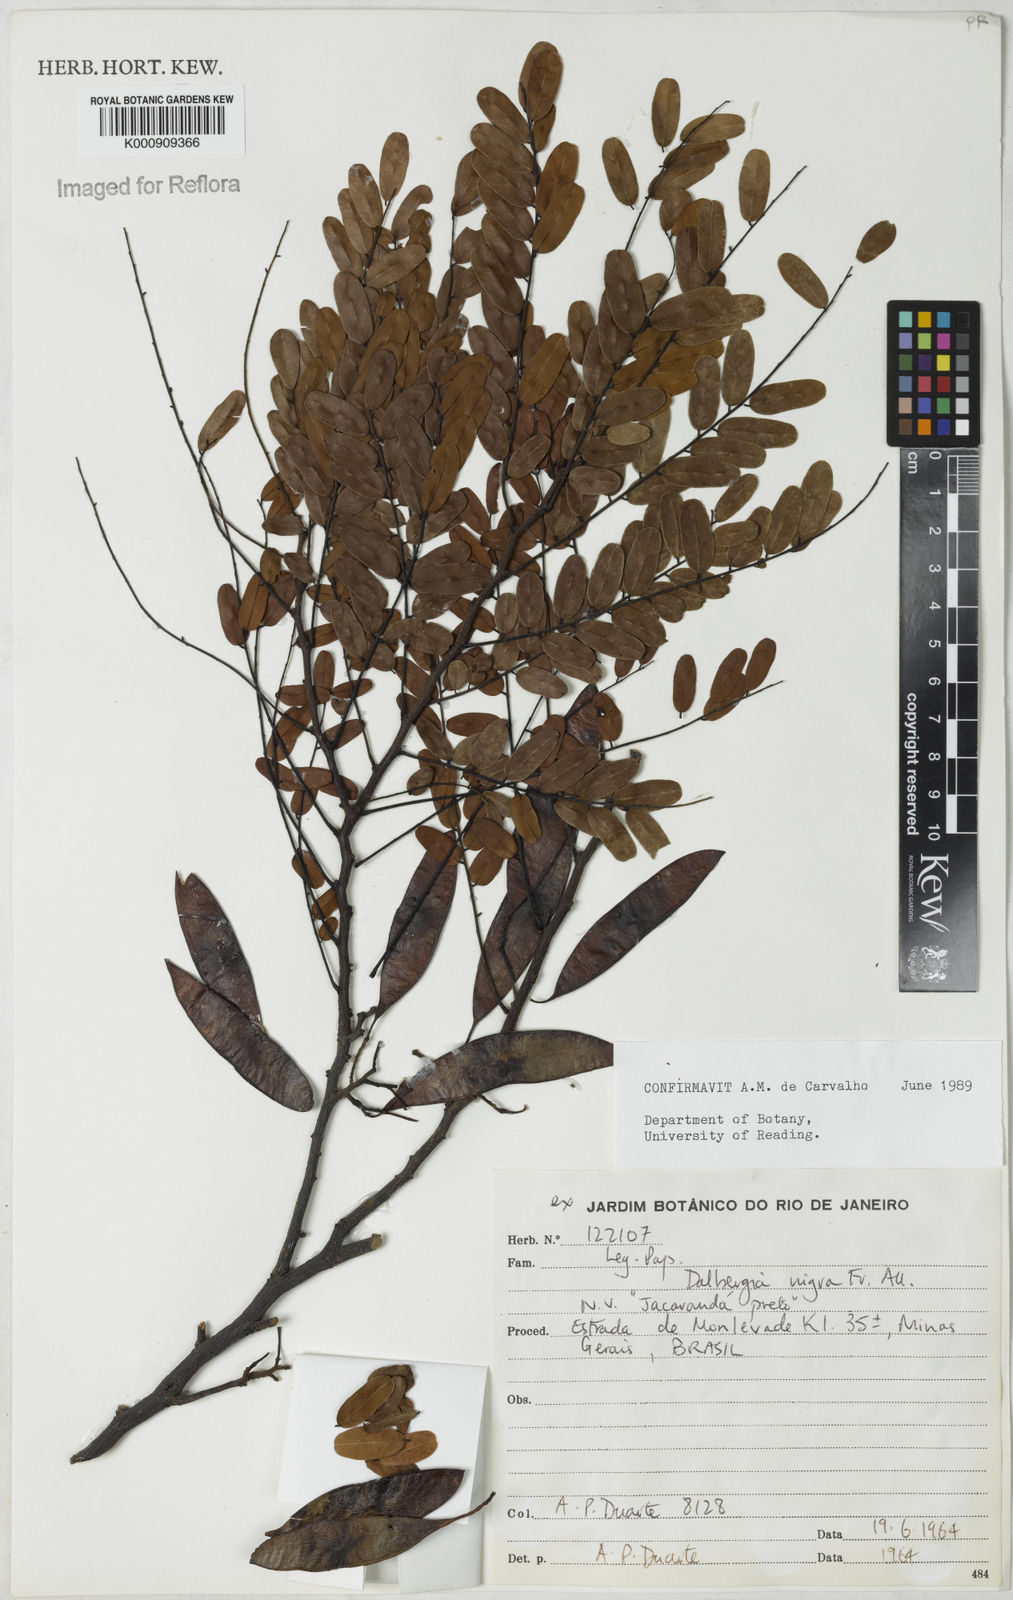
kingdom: Plantae
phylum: Tracheophyta
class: Magnoliopsida
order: Fabales
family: Fabaceae
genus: Dalbergia
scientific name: Dalbergia
